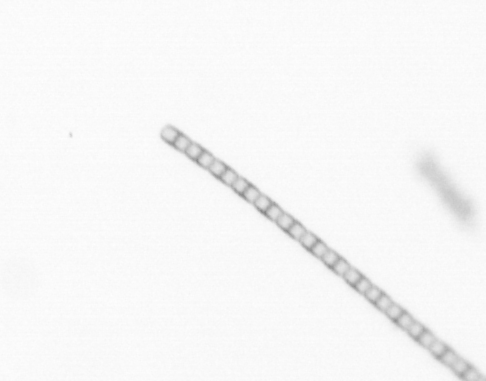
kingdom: Chromista
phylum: Ochrophyta
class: Bacillariophyceae
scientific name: Bacillariophyceae
